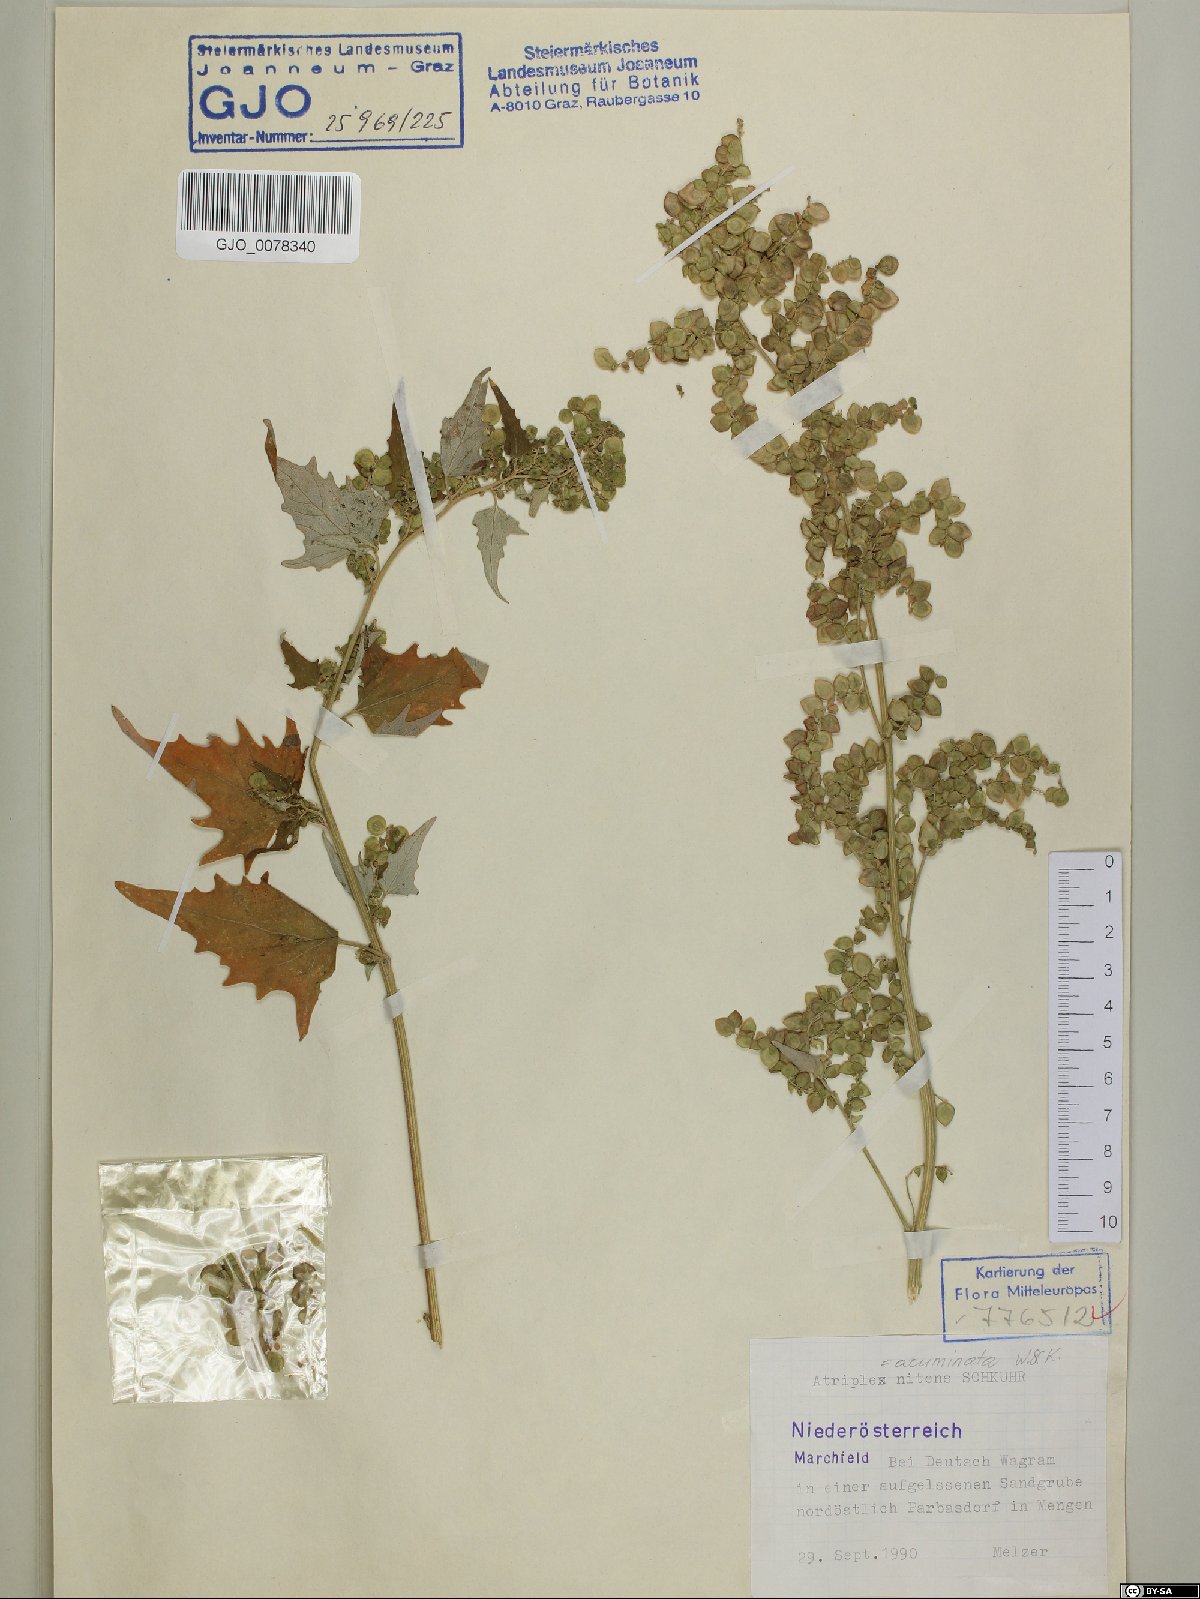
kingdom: Plantae
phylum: Tracheophyta
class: Magnoliopsida
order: Caryophyllales
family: Amaranthaceae
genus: Atriplex
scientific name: Atriplex sagittata
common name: Purple orache
